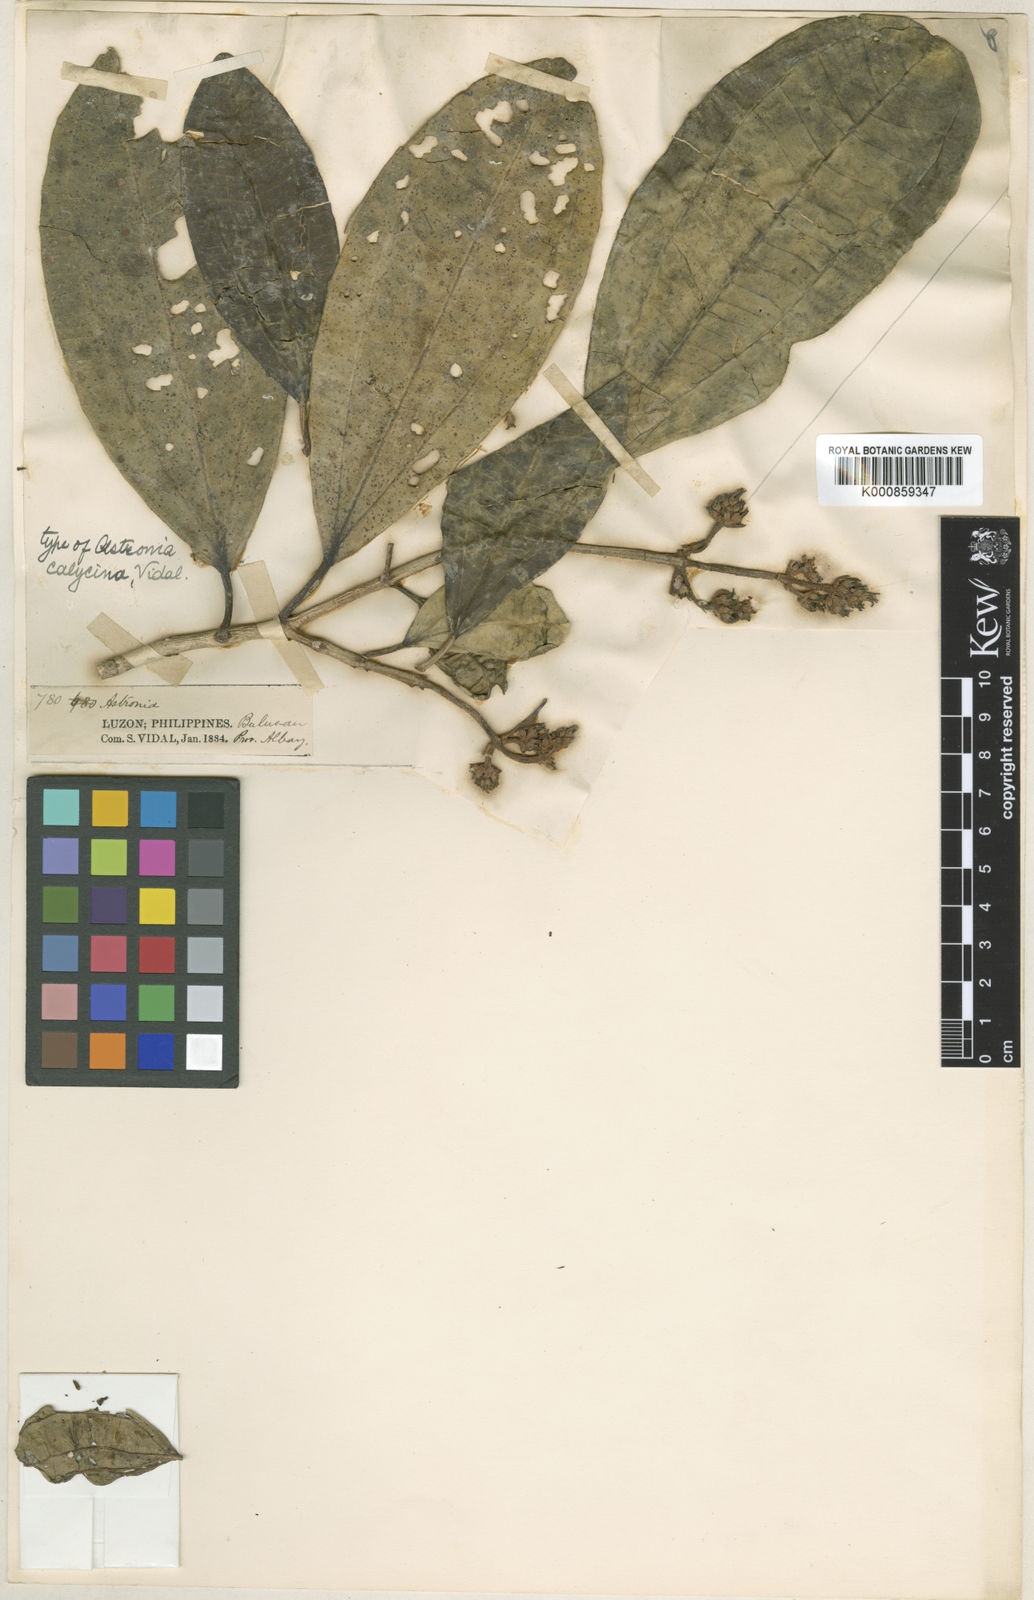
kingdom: Plantae
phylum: Tracheophyta
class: Magnoliopsida
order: Myrtales
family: Melastomataceae
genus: Astrocalyx
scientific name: Astrocalyx calycina
